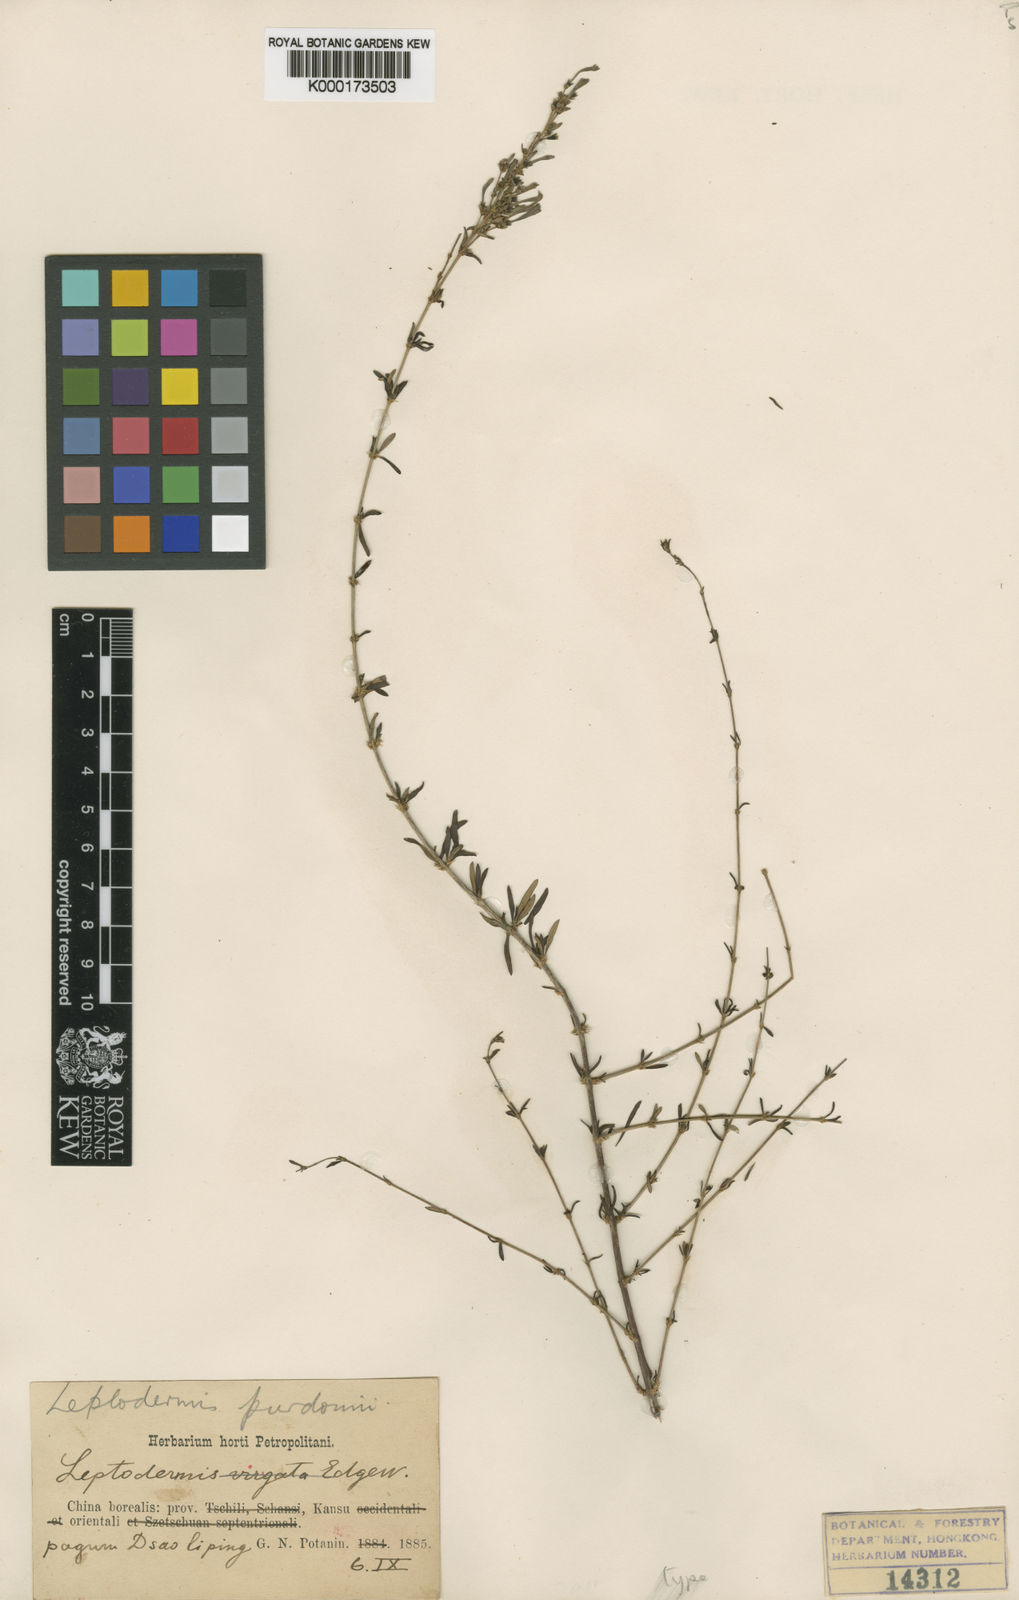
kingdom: Plantae
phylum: Tracheophyta
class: Magnoliopsida
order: Gentianales
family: Rubiaceae
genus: Leptodermis
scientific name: Leptodermis purdomii
